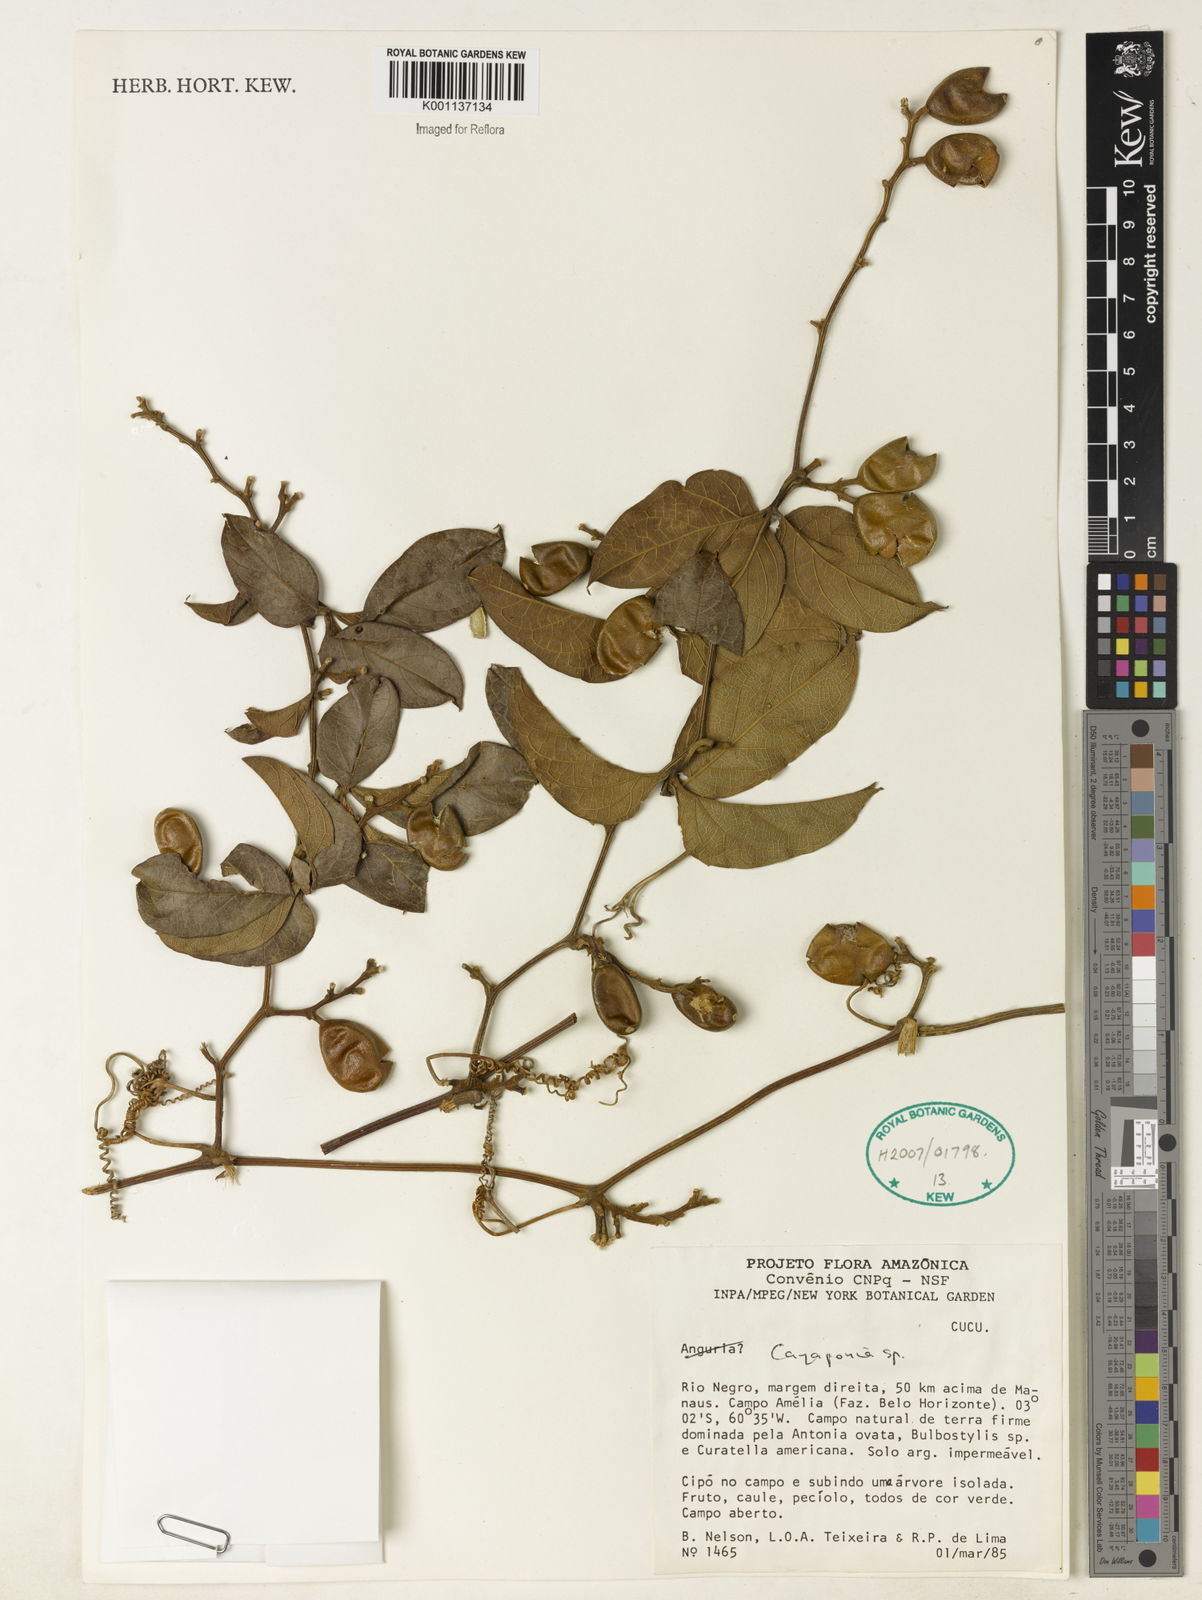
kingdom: Plantae
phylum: Tracheophyta
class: Magnoliopsida
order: Cucurbitales
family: Cucurbitaceae
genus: Cayaponia
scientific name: Cayaponia
